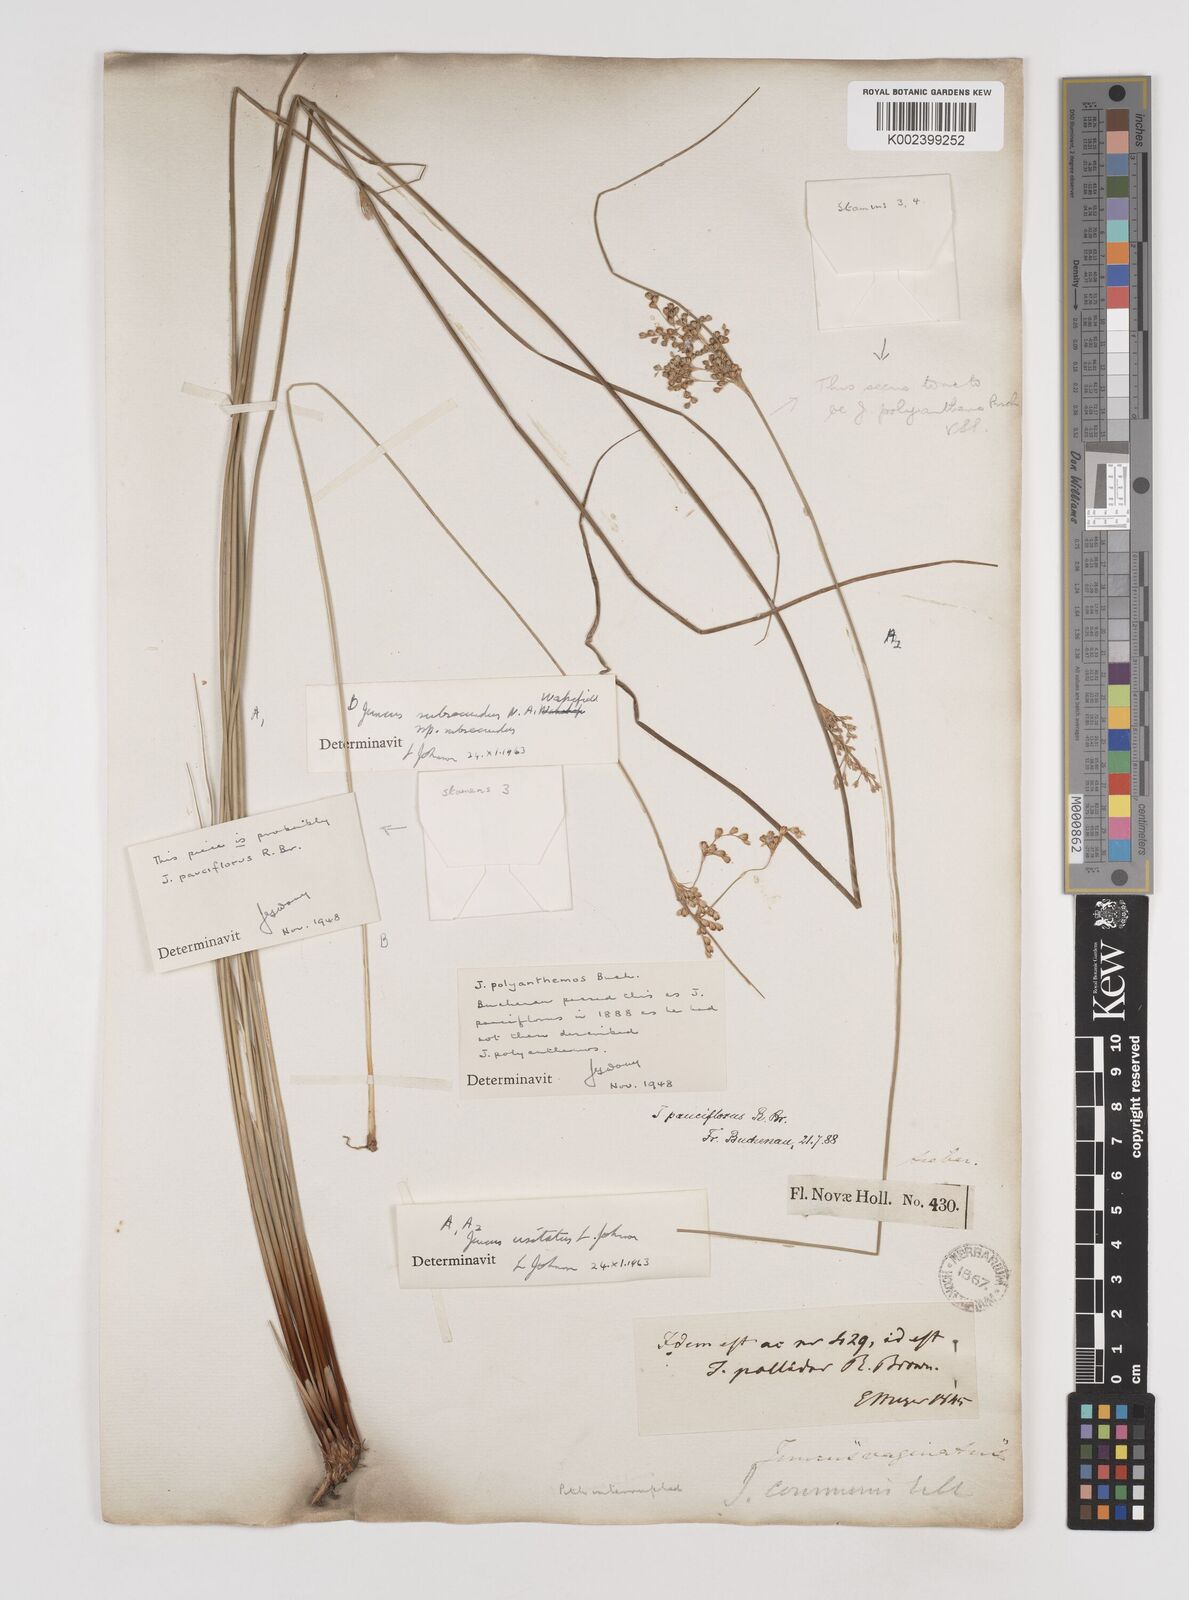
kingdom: Plantae
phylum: Tracheophyta
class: Liliopsida
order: Poales
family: Juncaceae
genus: Juncus
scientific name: Juncus usitatus
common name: Rush
